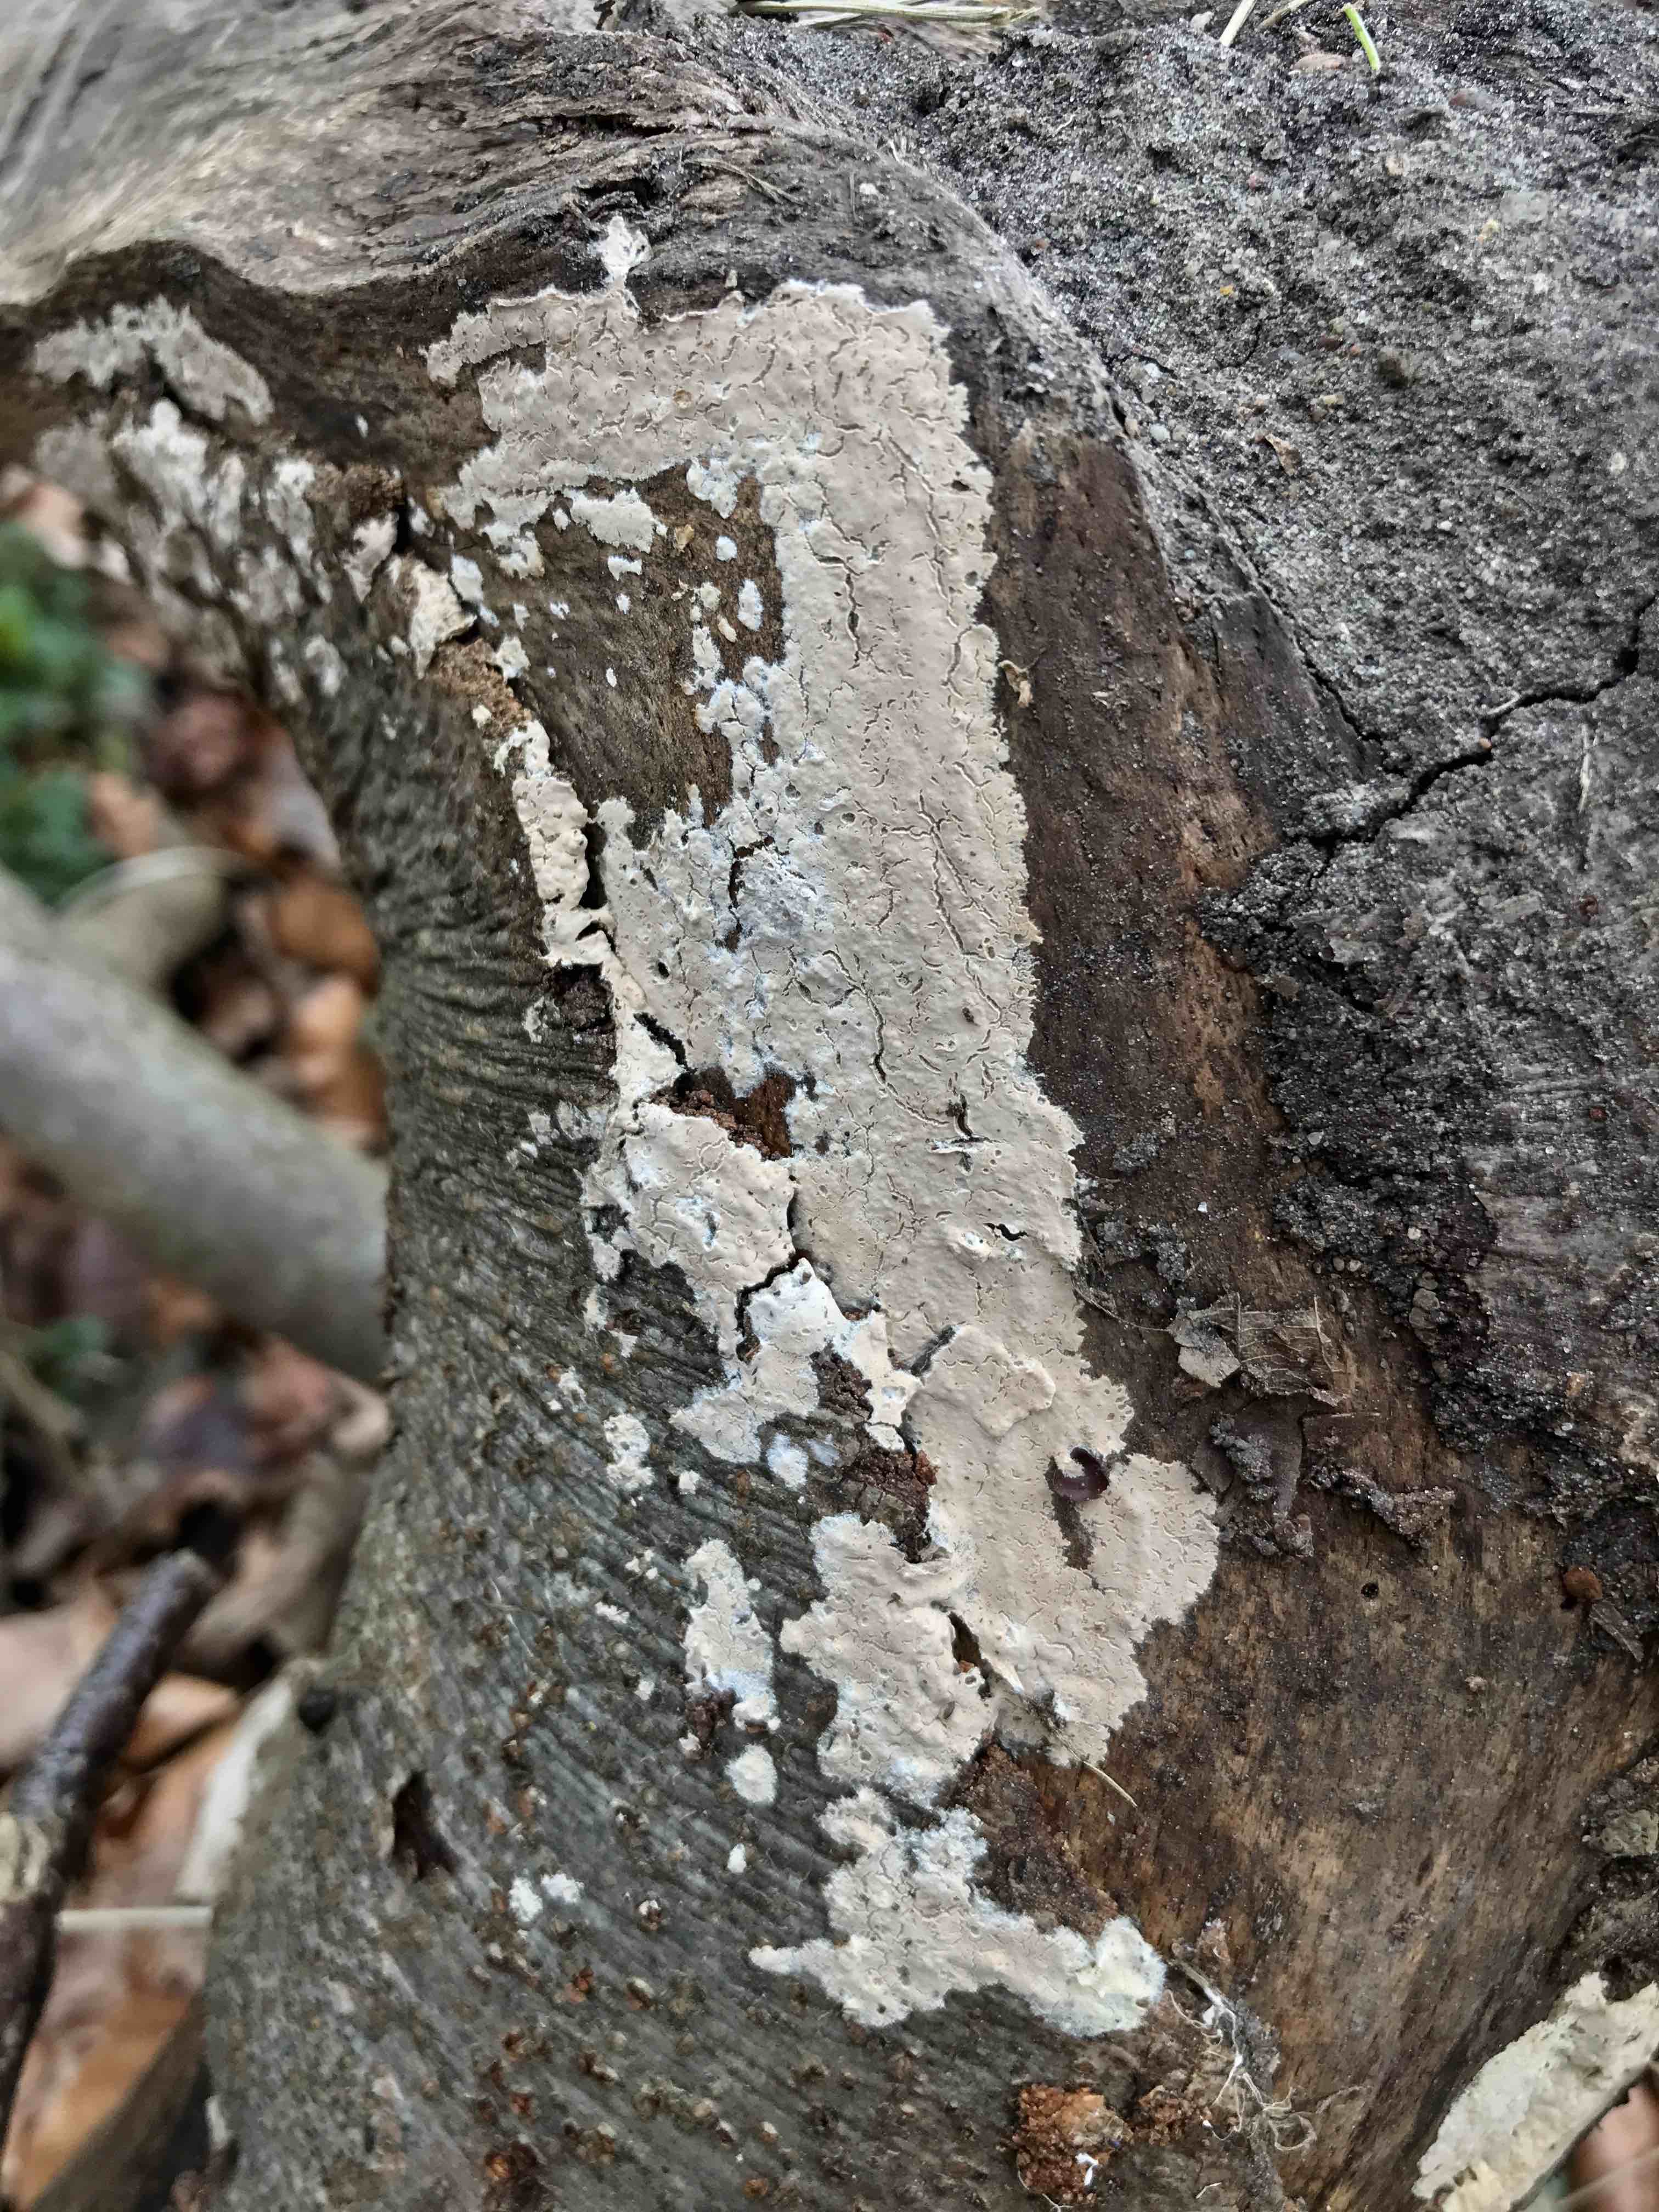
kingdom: Fungi
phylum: Basidiomycota
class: Agaricomycetes
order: Agaricales
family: Physalacriaceae
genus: Cylindrobasidium
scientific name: Cylindrobasidium evolvens
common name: sprækkehinde
